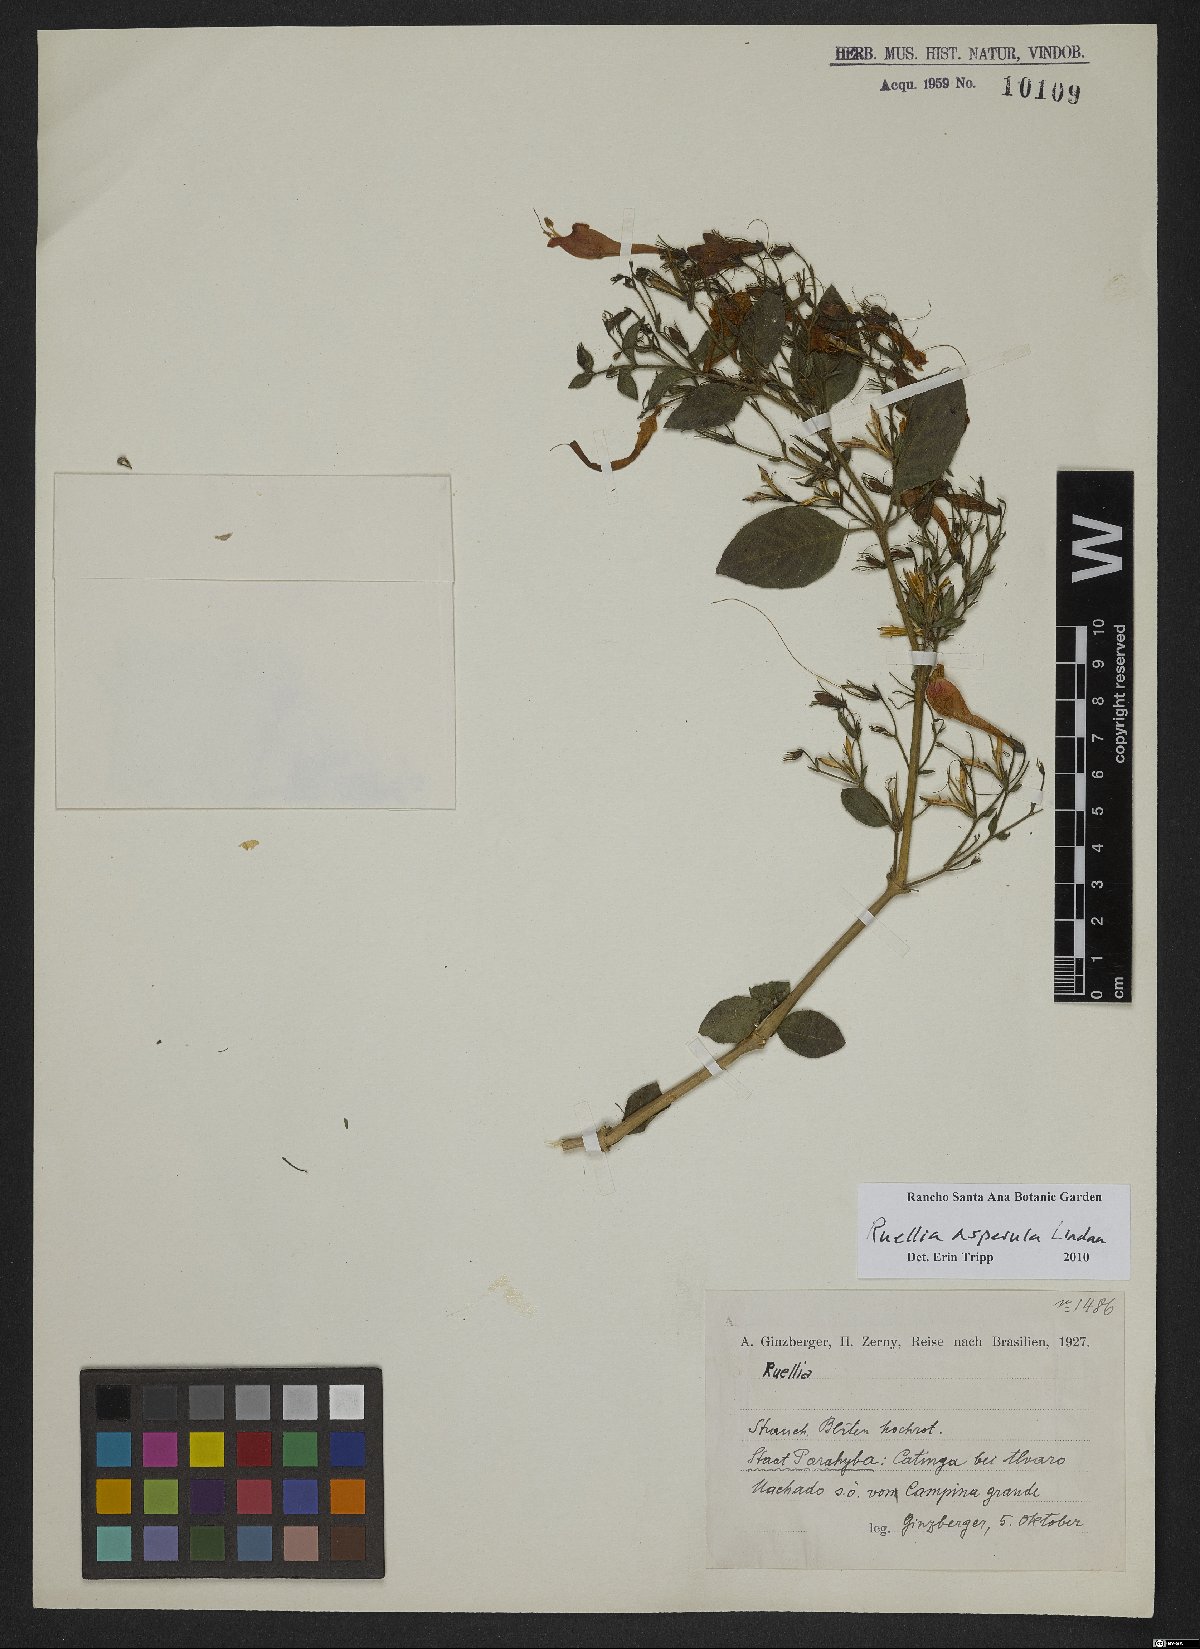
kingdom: Plantae
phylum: Tracheophyta
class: Magnoliopsida
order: Lamiales
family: Acanthaceae
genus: Ruellia
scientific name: Ruellia asperula
